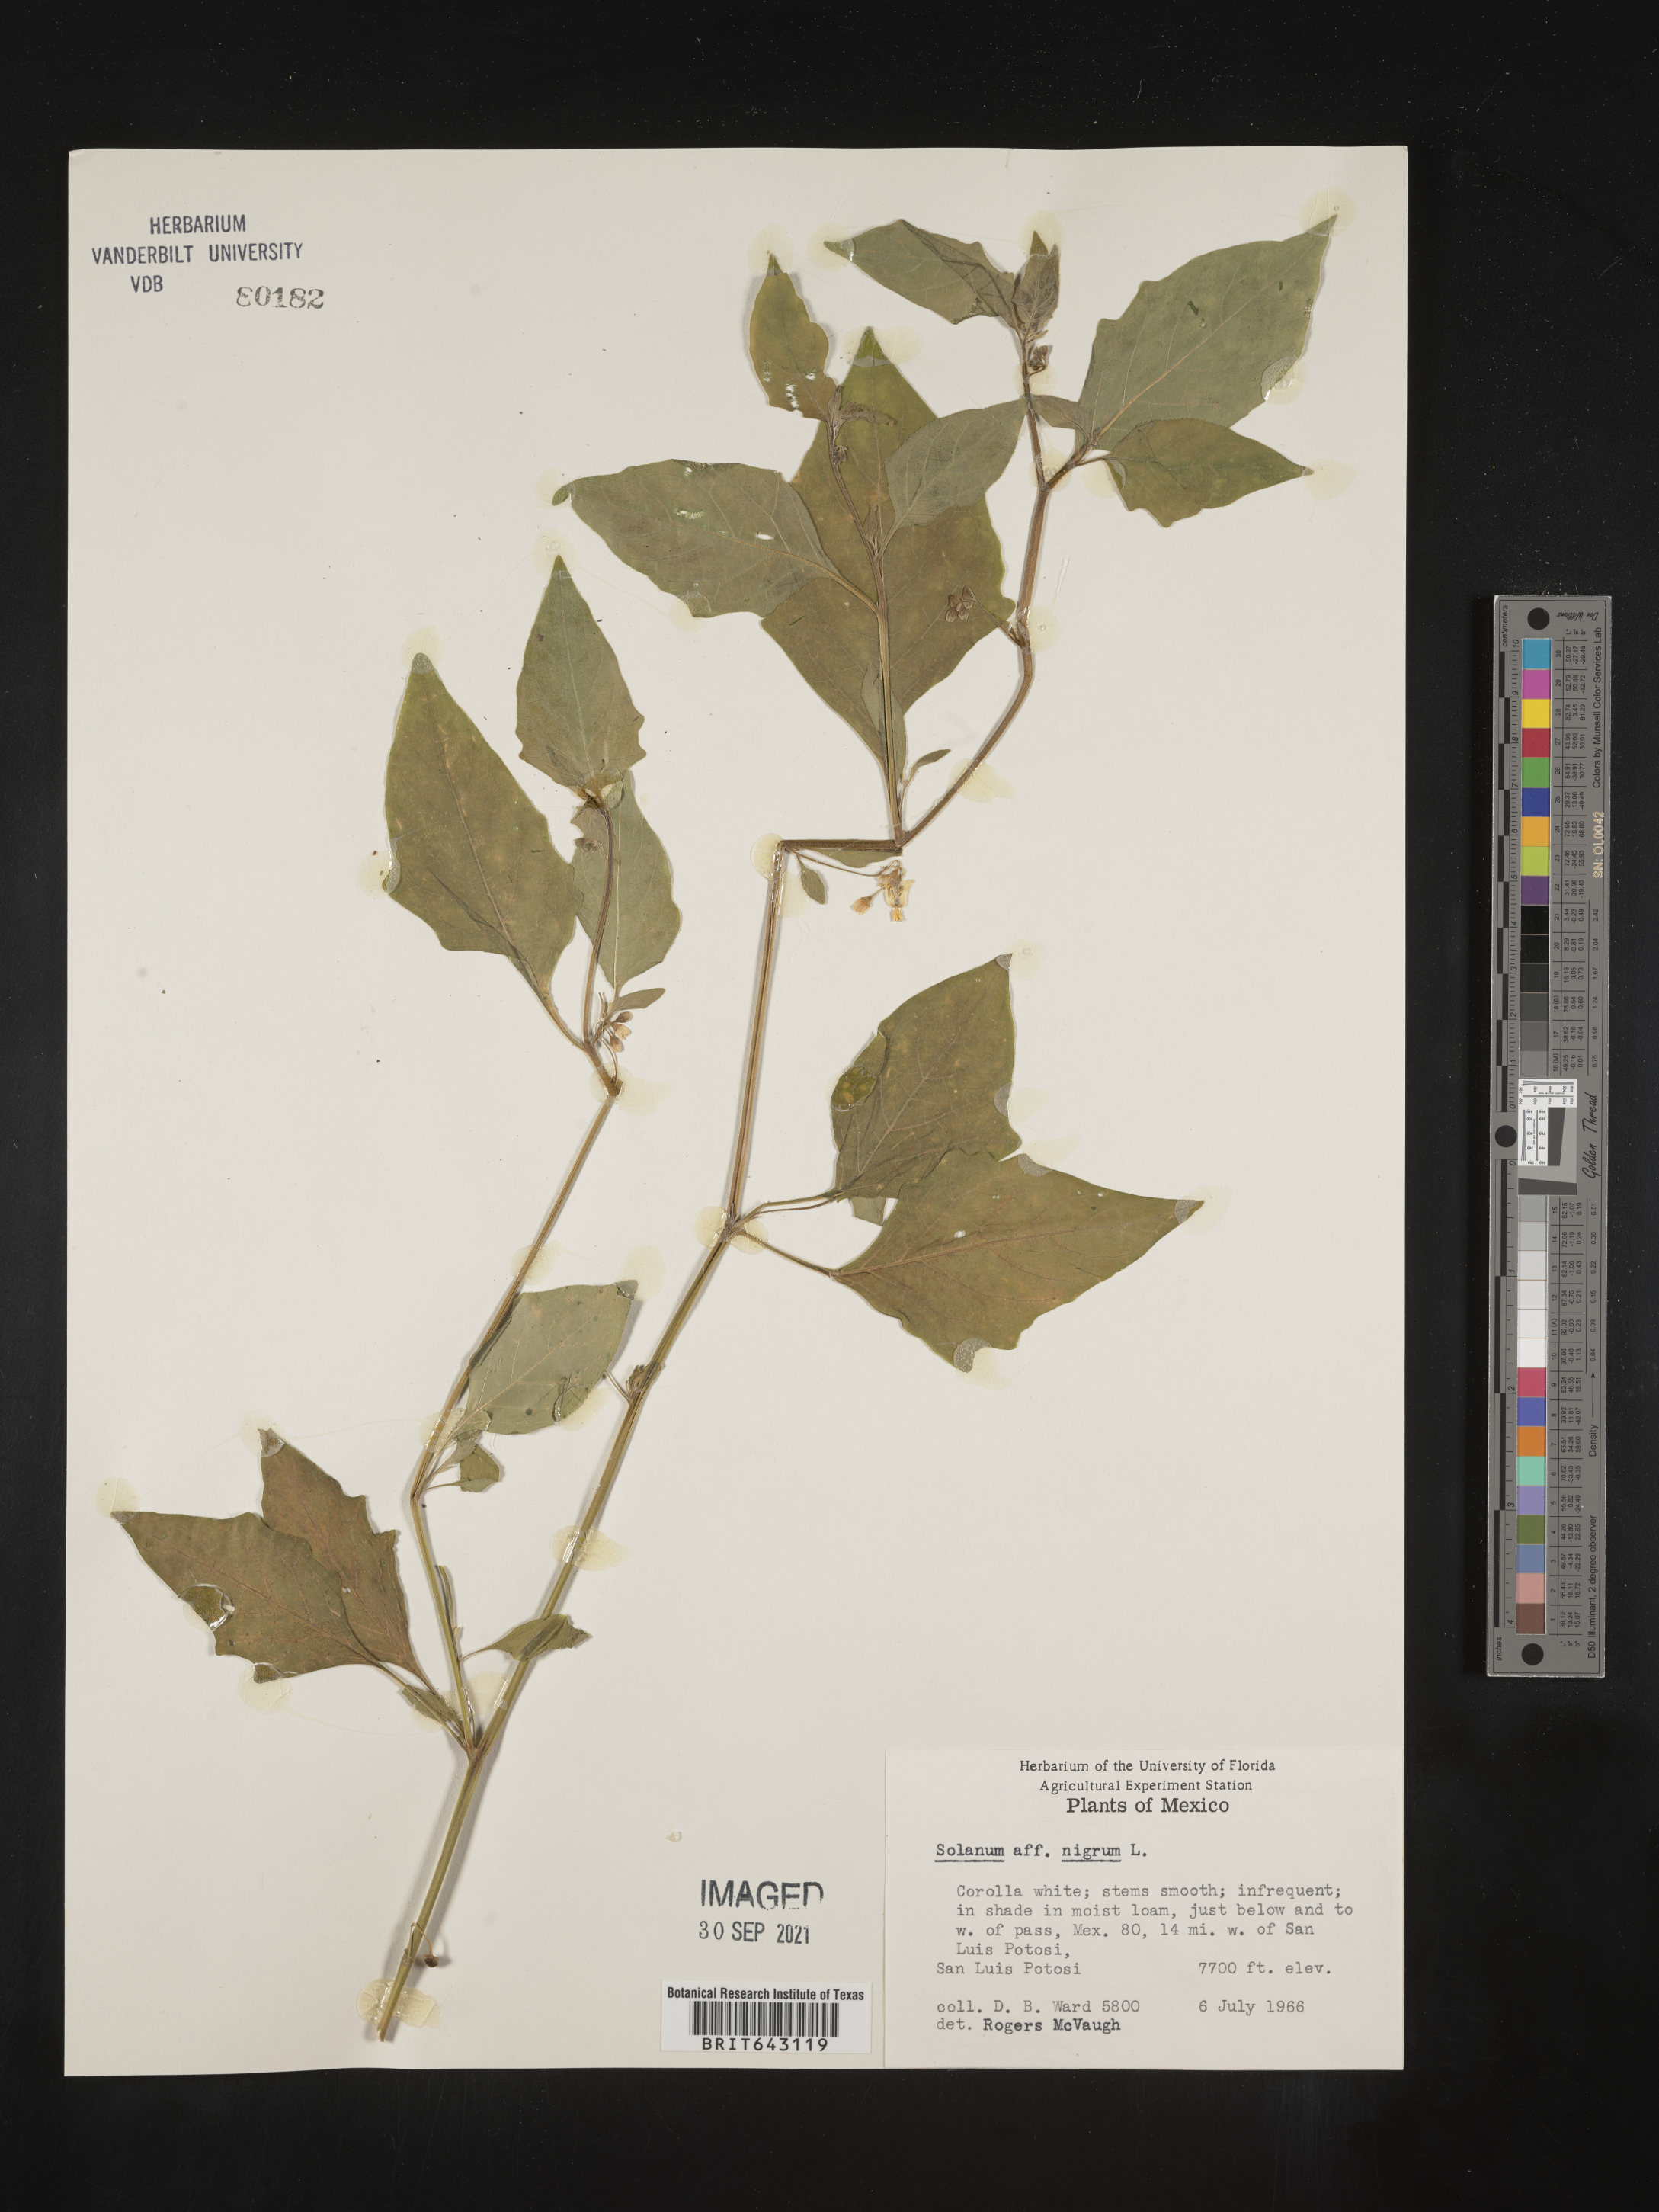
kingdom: Plantae
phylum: Tracheophyta
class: Magnoliopsida
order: Solanales
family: Solanaceae
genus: Solanum
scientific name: Solanum
